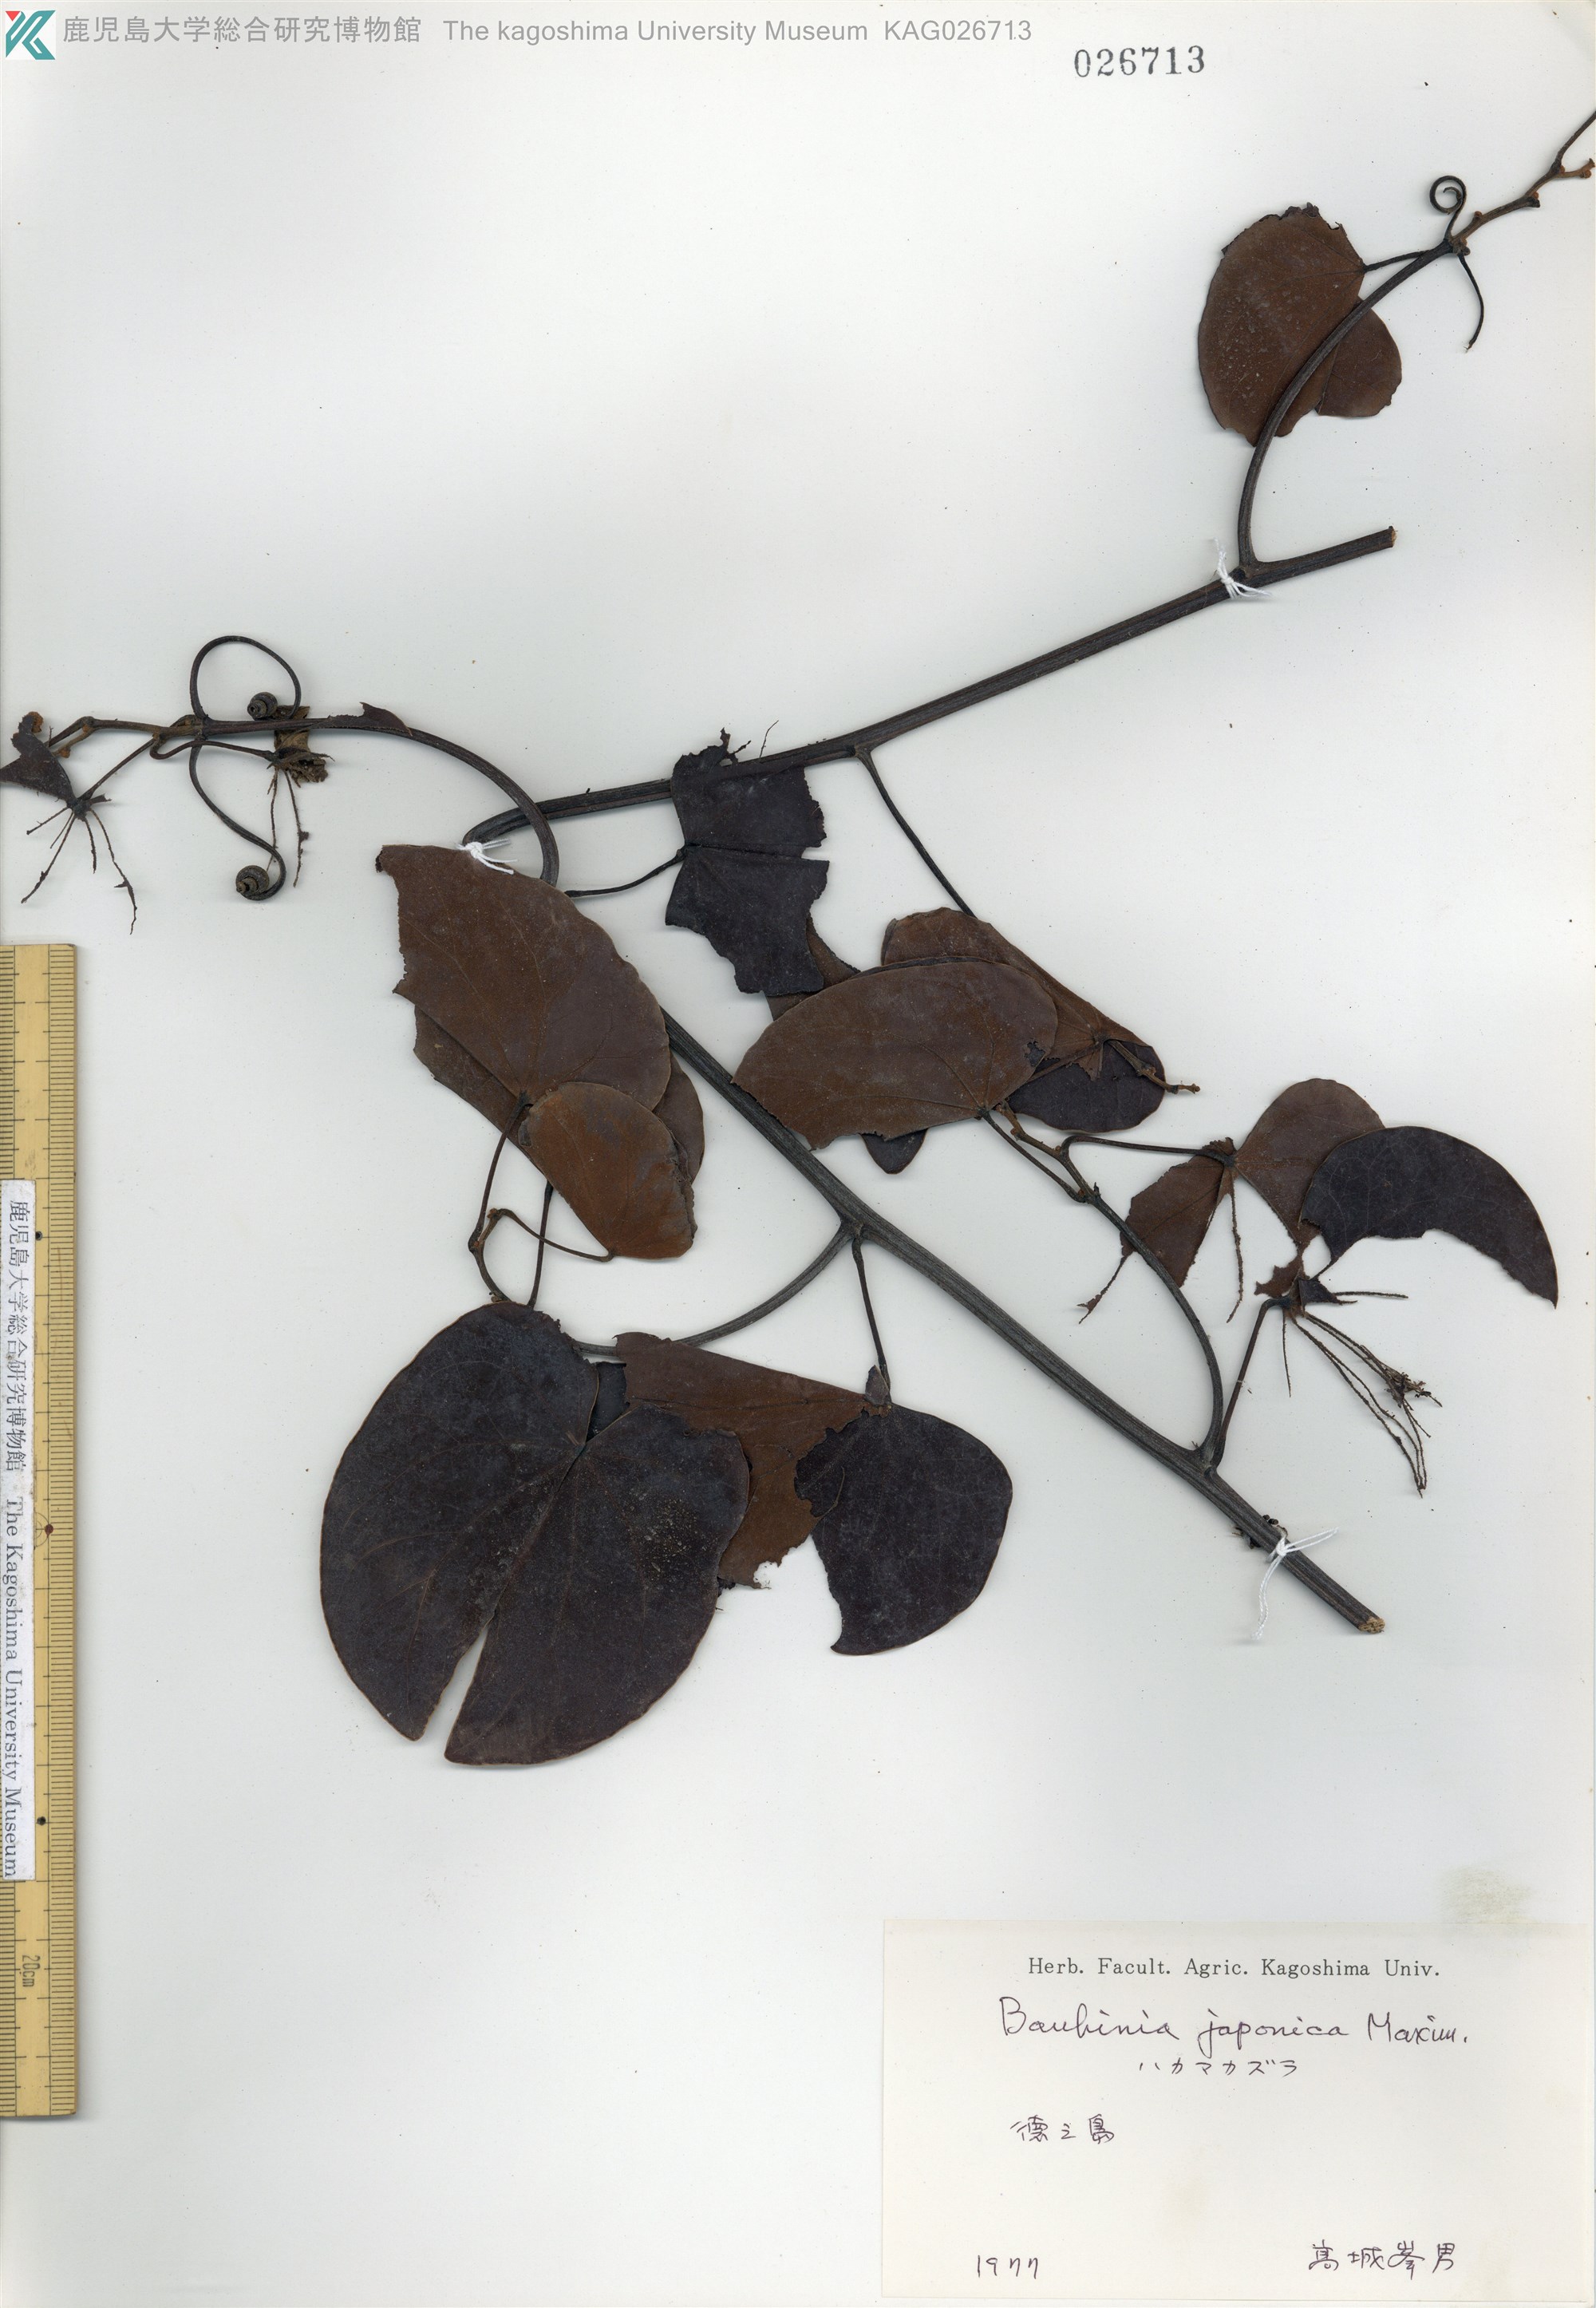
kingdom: Plantae
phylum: Tracheophyta
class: Magnoliopsida
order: Fabales
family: Fabaceae
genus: Phanera
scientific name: Phanera japonica
